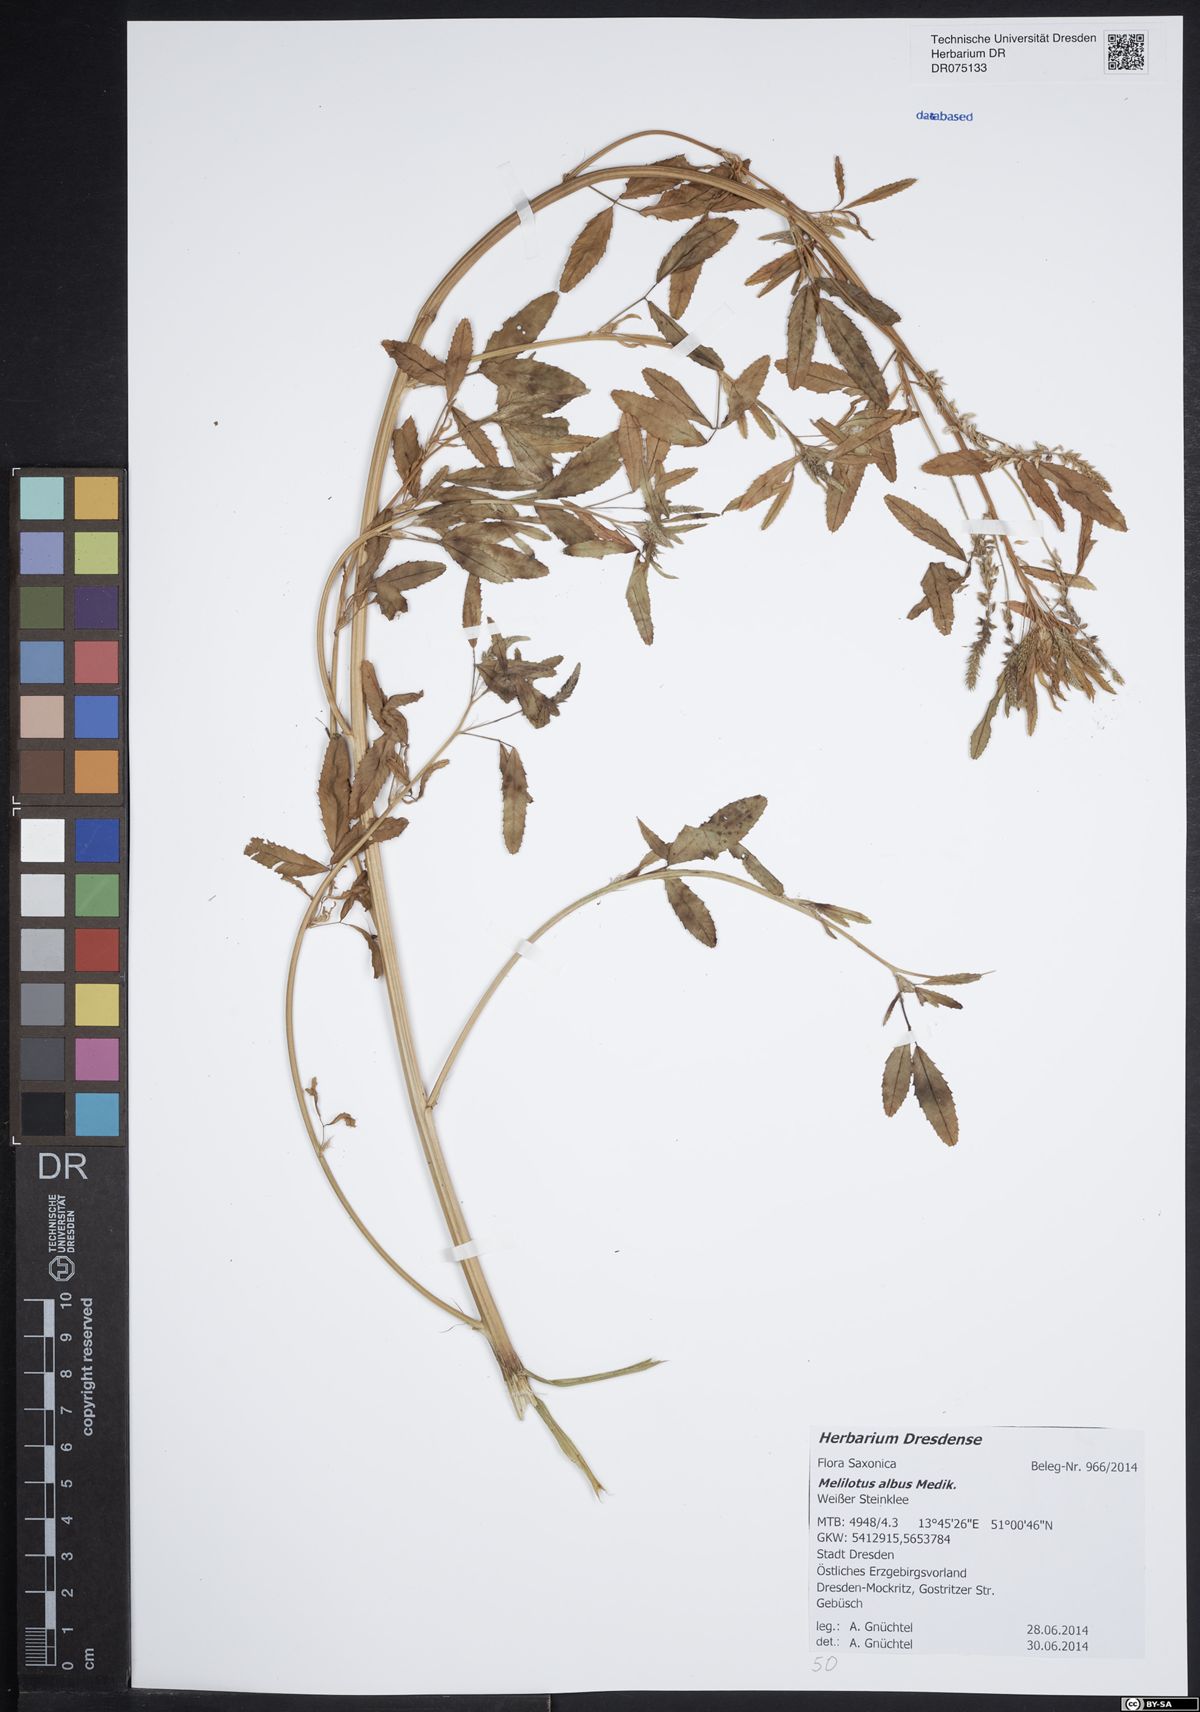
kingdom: Plantae
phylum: Tracheophyta
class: Magnoliopsida
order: Fabales
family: Fabaceae
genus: Melilotus
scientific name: Melilotus albus
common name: White melilot
